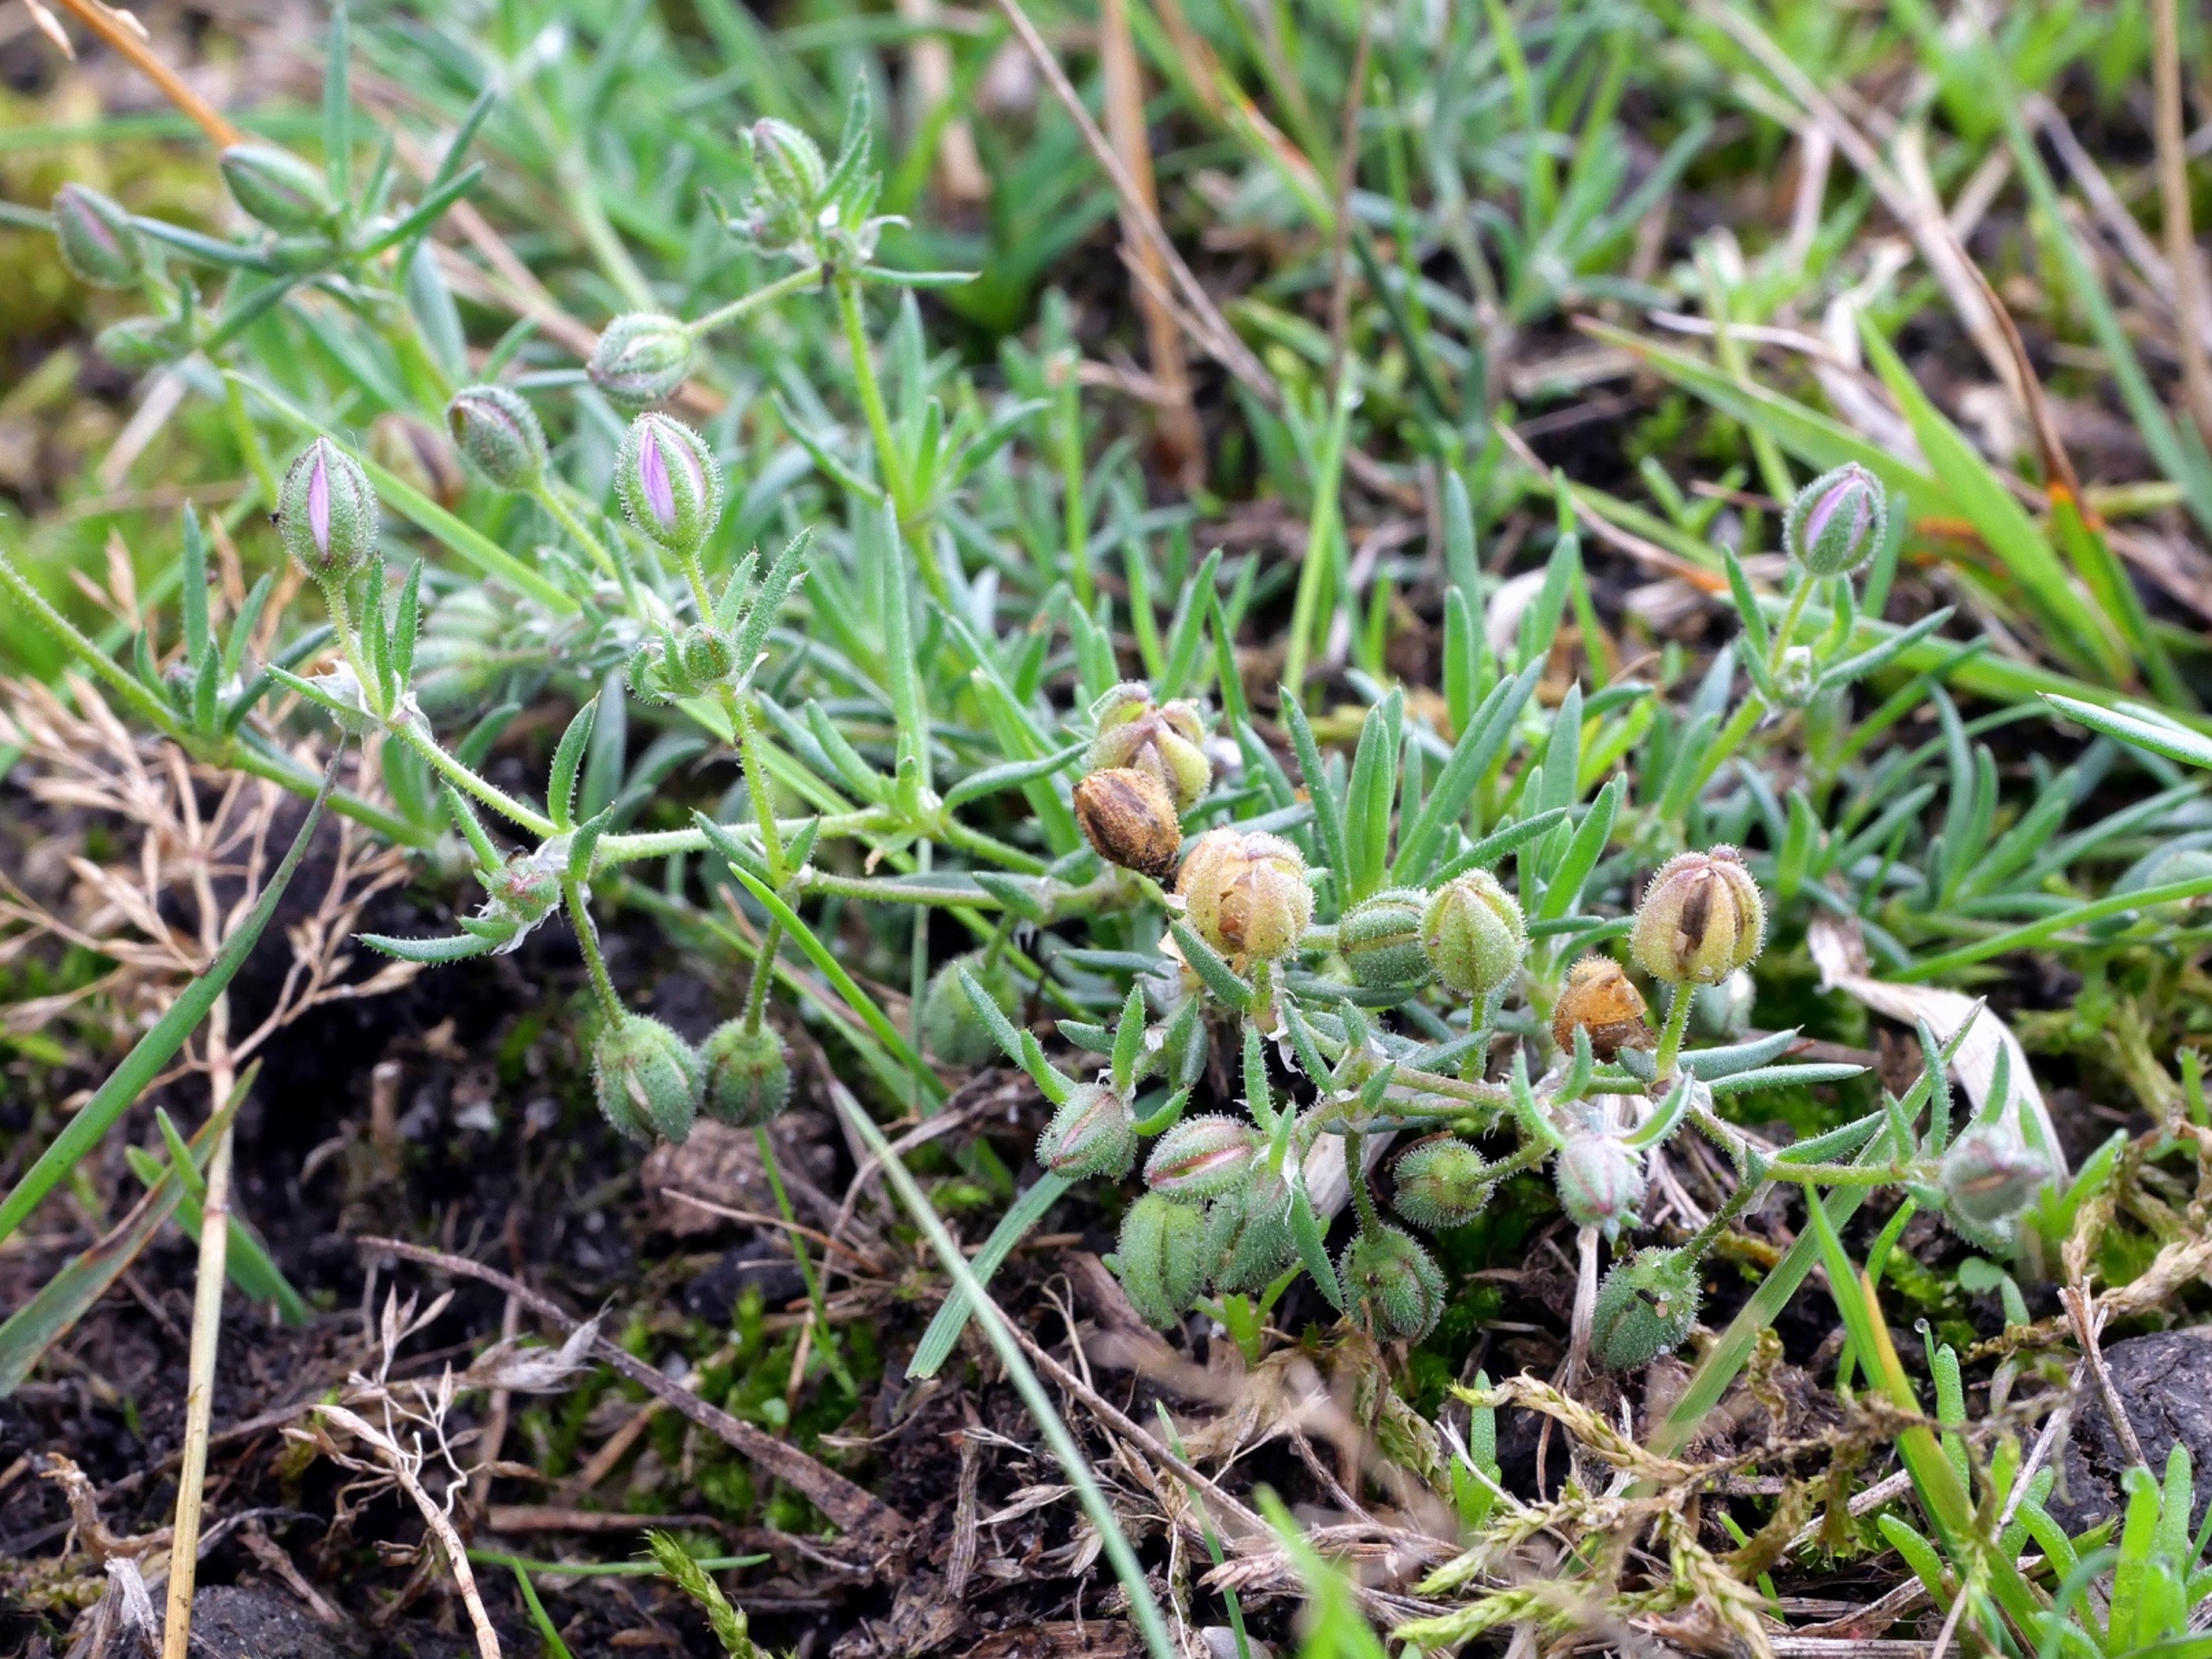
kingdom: Plantae
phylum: Tracheophyta
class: Magnoliopsida
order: Caryophyllales
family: Caryophyllaceae
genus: Spergularia
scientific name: Spergularia rubra
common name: Mark-hindeknæ
